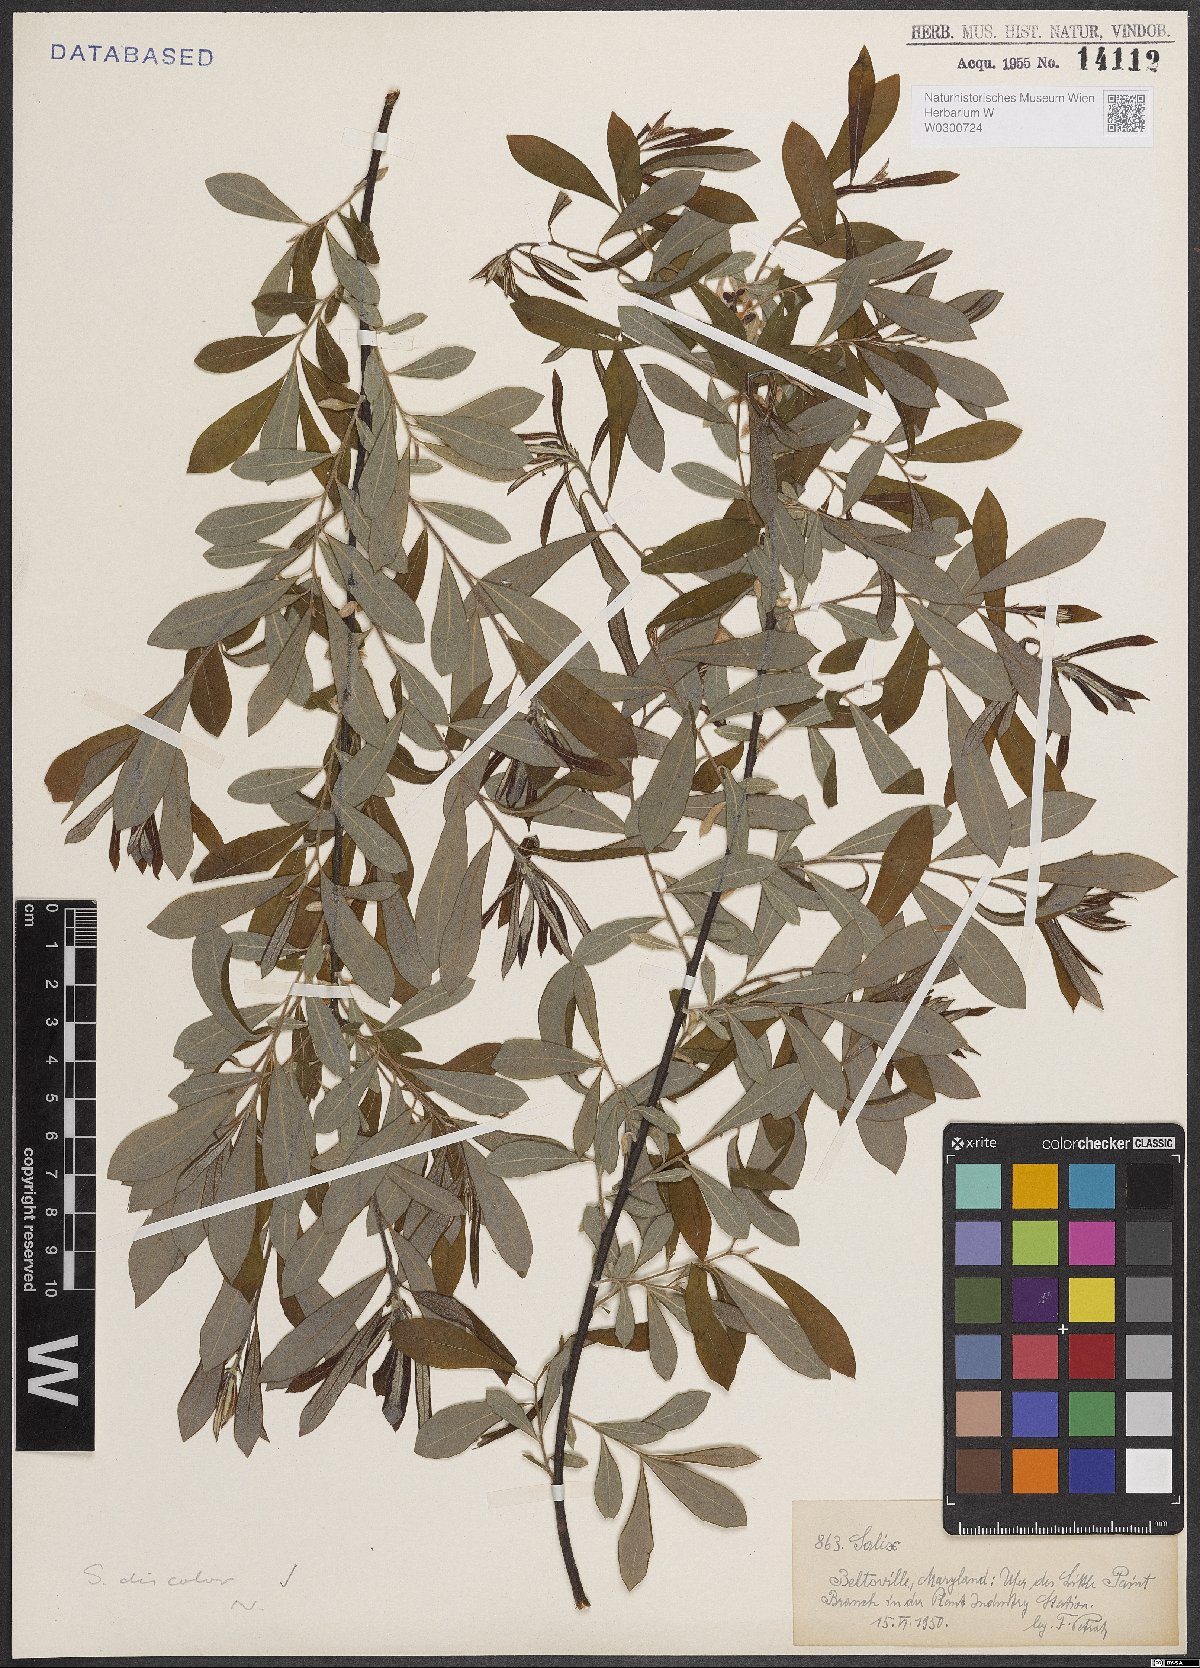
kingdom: Plantae
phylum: Tracheophyta
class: Magnoliopsida
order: Malpighiales
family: Salicaceae
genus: Salix
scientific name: Salix discolor
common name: Glaucous willow
